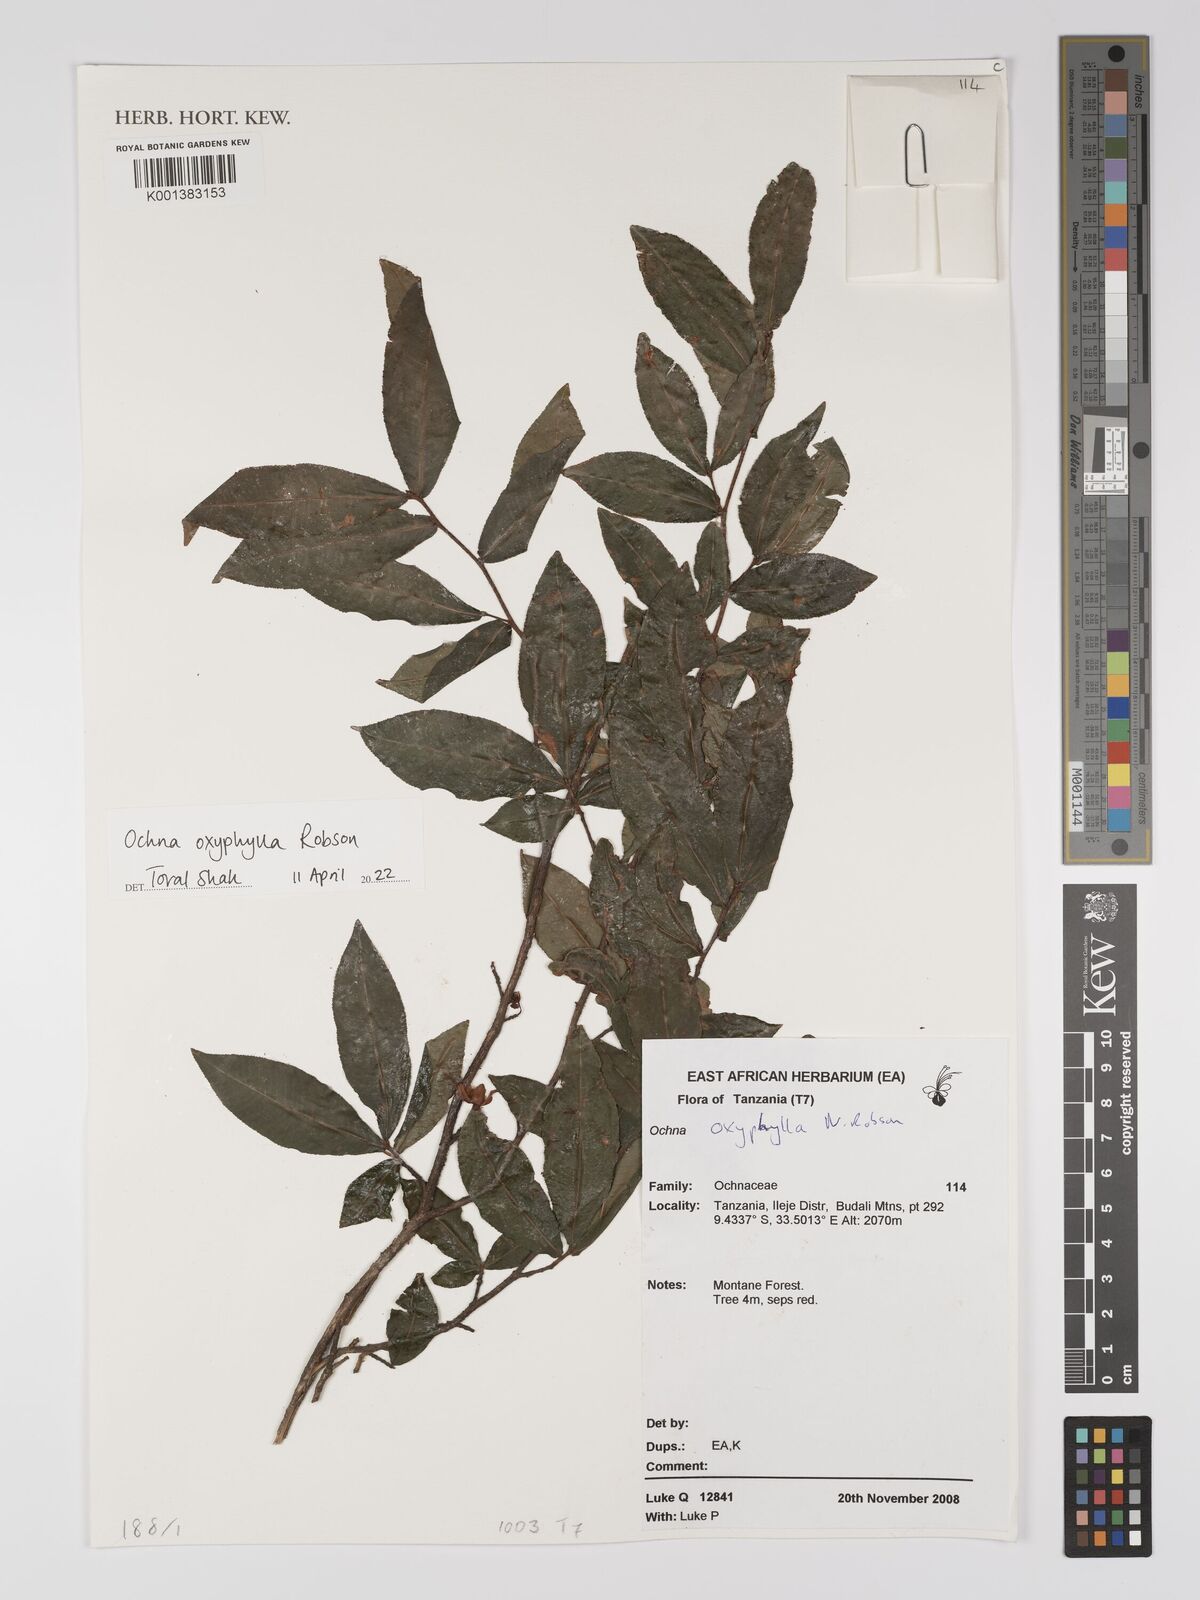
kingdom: Plantae
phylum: Tracheophyta
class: Magnoliopsida
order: Malpighiales
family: Ochnaceae
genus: Ochna
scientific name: Ochna oxyphylla
